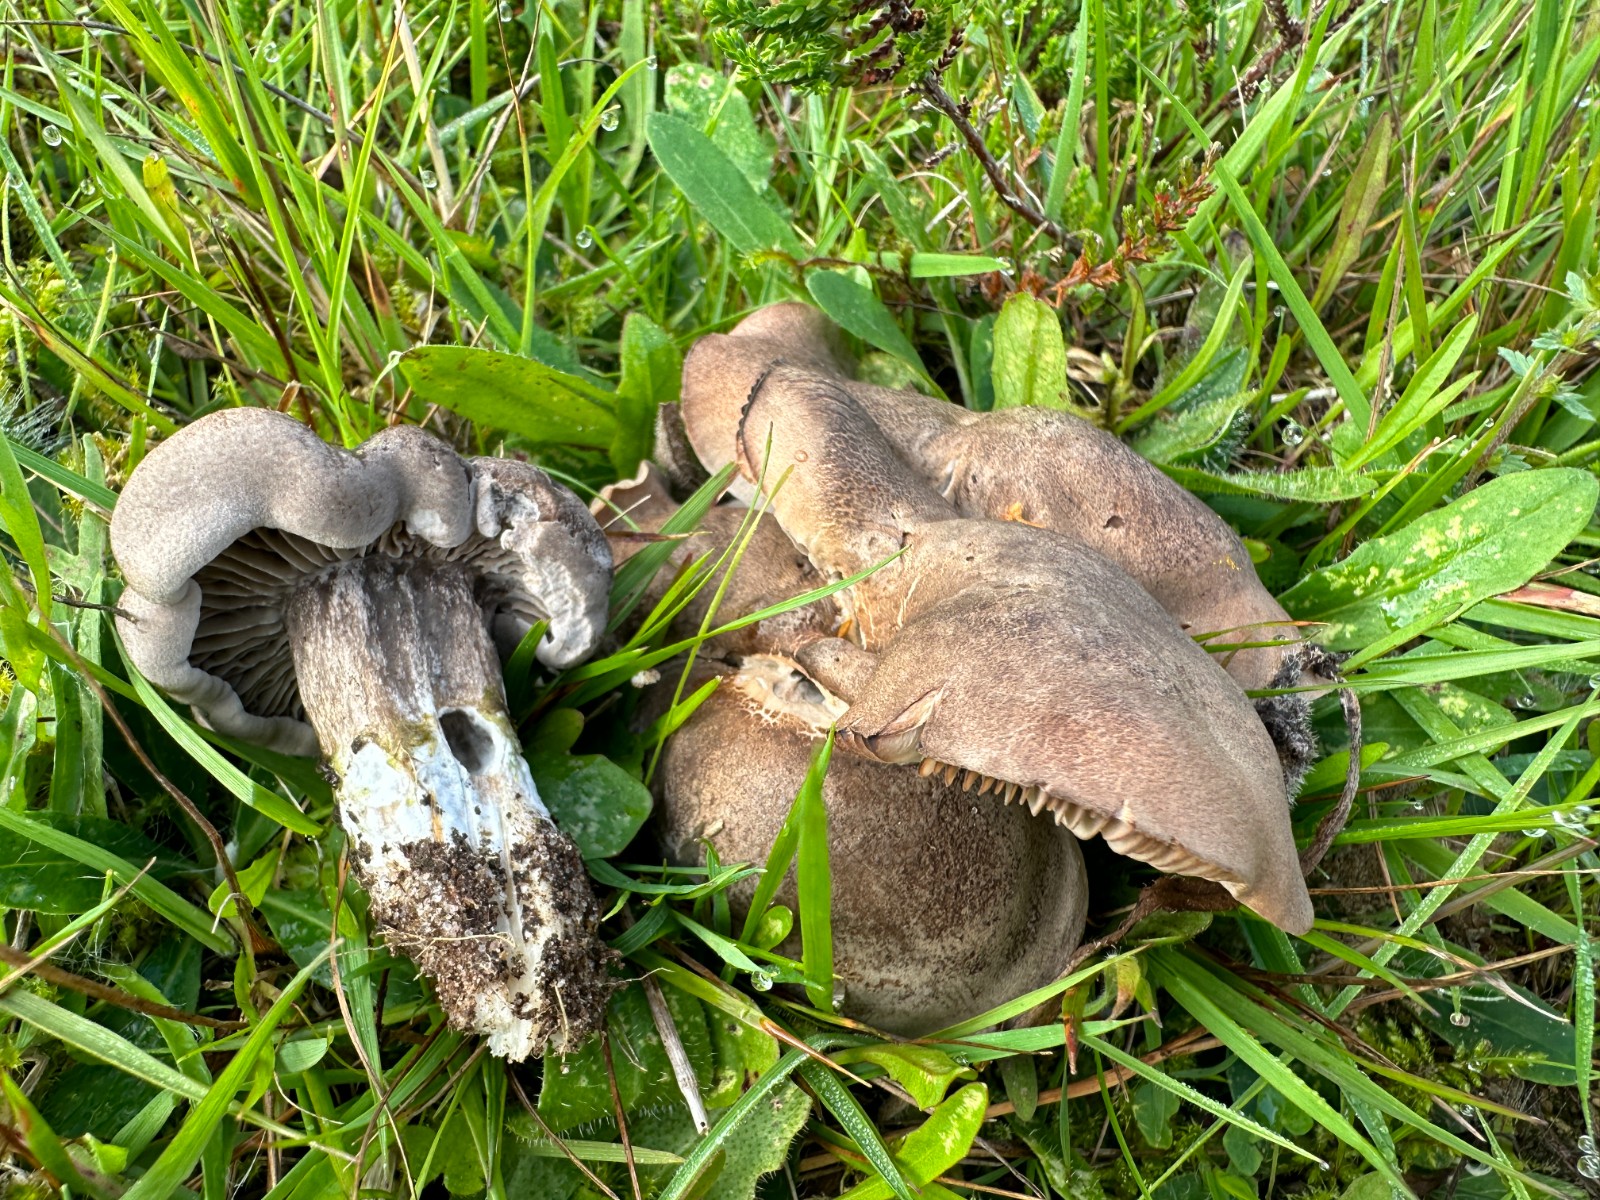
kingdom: Fungi
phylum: Basidiomycota
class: Agaricomycetes
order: Agaricales
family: Tricholomataceae
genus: Pseudotricholoma
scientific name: Pseudotricholoma metapodium
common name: rødmende alfehat
